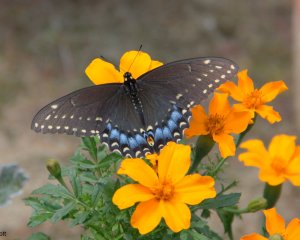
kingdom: Animalia
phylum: Arthropoda
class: Insecta
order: Lepidoptera
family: Papilionidae
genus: Papilio
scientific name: Papilio polyxenes
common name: Black Swallowtail
